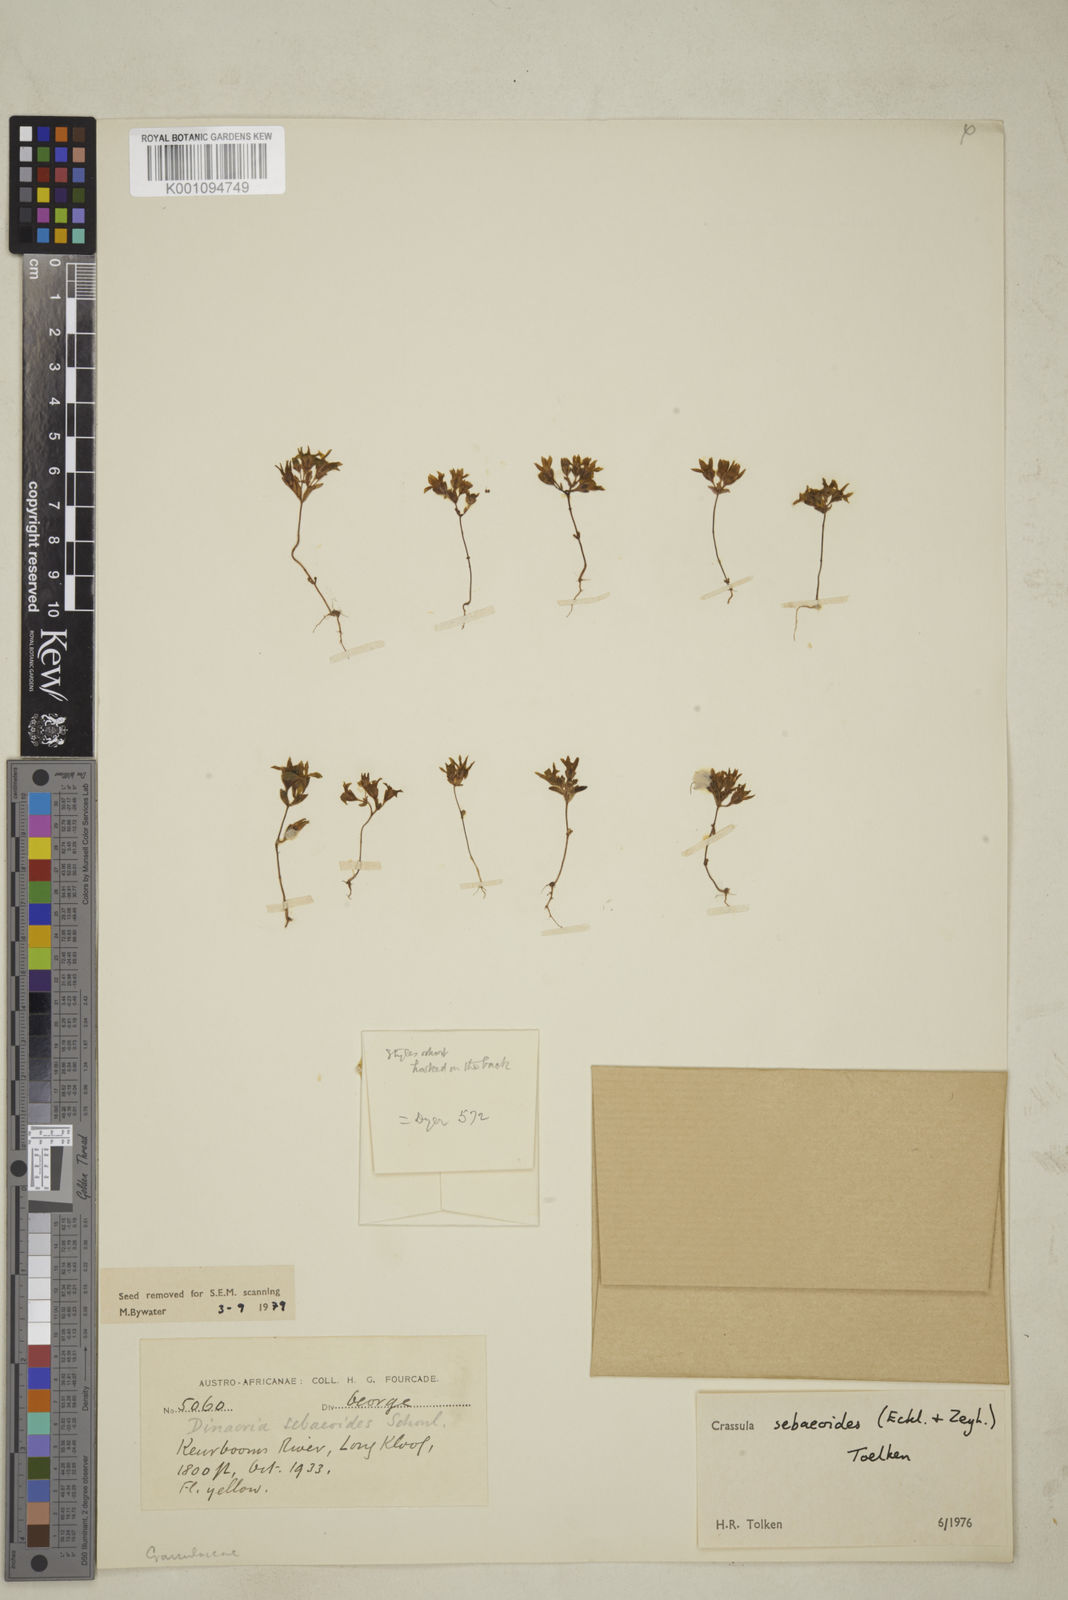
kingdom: Plantae
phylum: Tracheophyta
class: Magnoliopsida
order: Saxifragales
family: Crassulaceae
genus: Crassula
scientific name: Crassula sebaeoides
